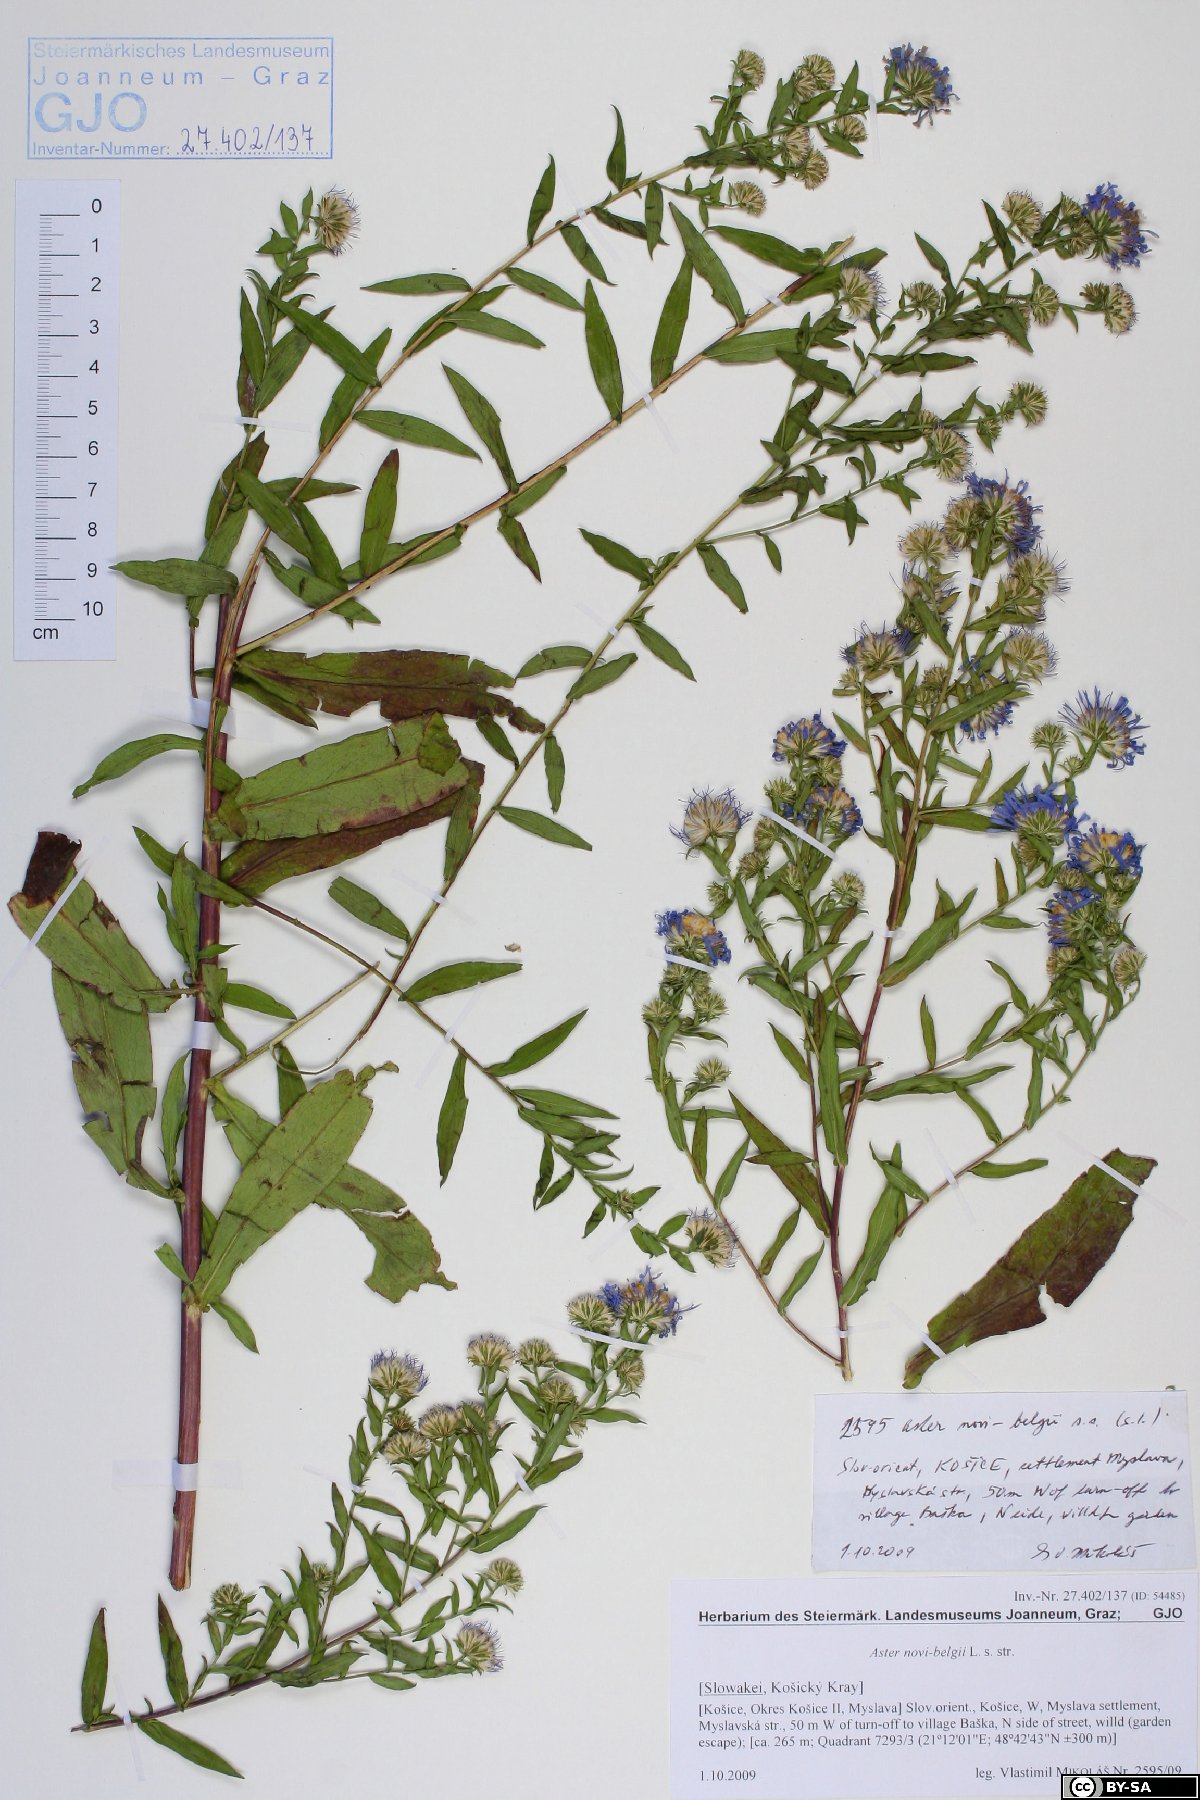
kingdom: Plantae
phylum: Tracheophyta
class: Magnoliopsida
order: Asterales
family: Asteraceae
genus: Symphyotrichum
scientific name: Symphyotrichum novi-belgii
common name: Michaelmas daisy
